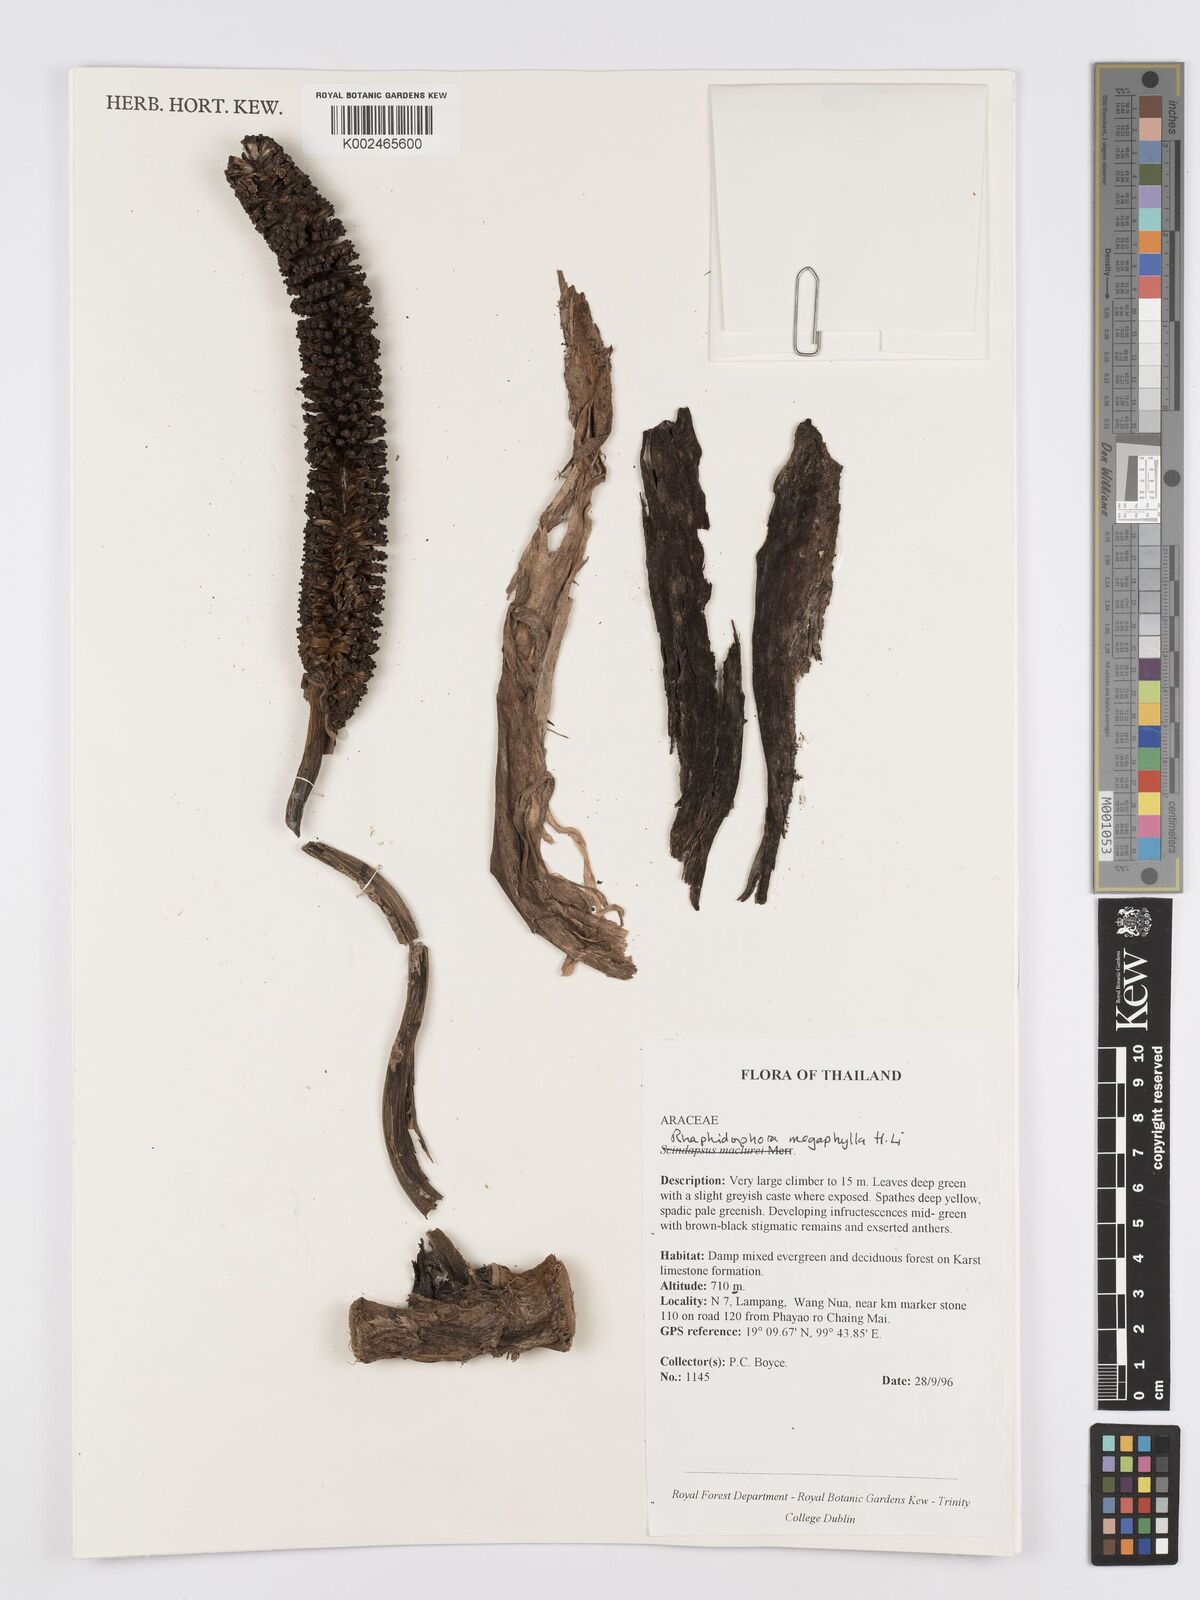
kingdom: Plantae
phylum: Tracheophyta
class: Liliopsida
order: Alismatales
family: Araceae
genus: Rhaphidophora
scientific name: Rhaphidophora megaphylla
